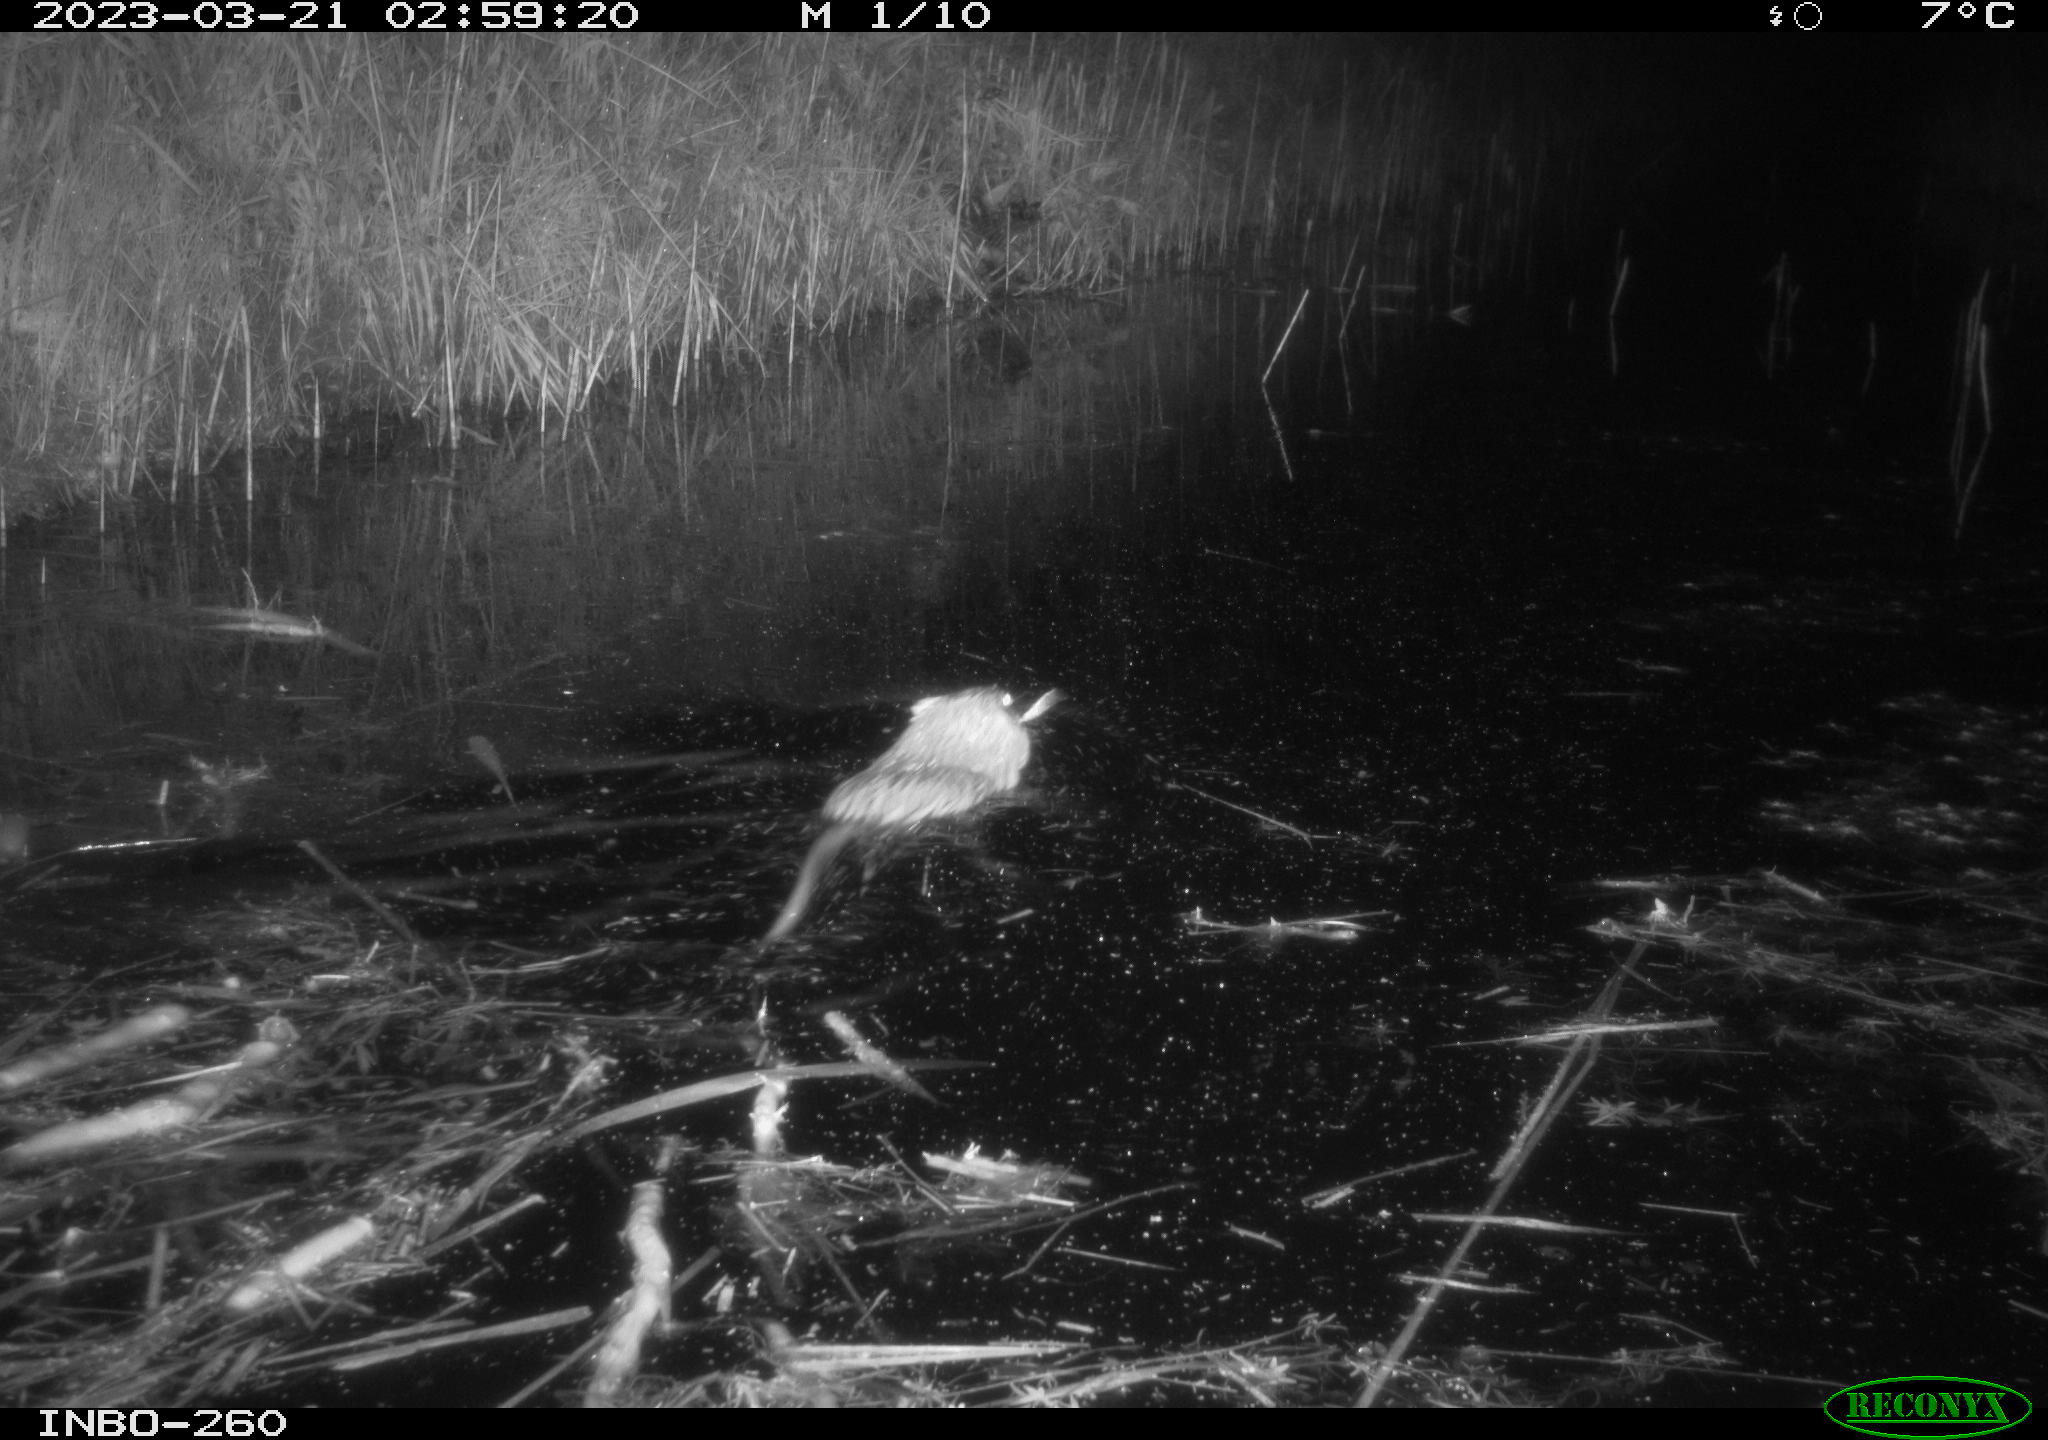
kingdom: Animalia
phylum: Chordata
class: Mammalia
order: Rodentia
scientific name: Rodentia
